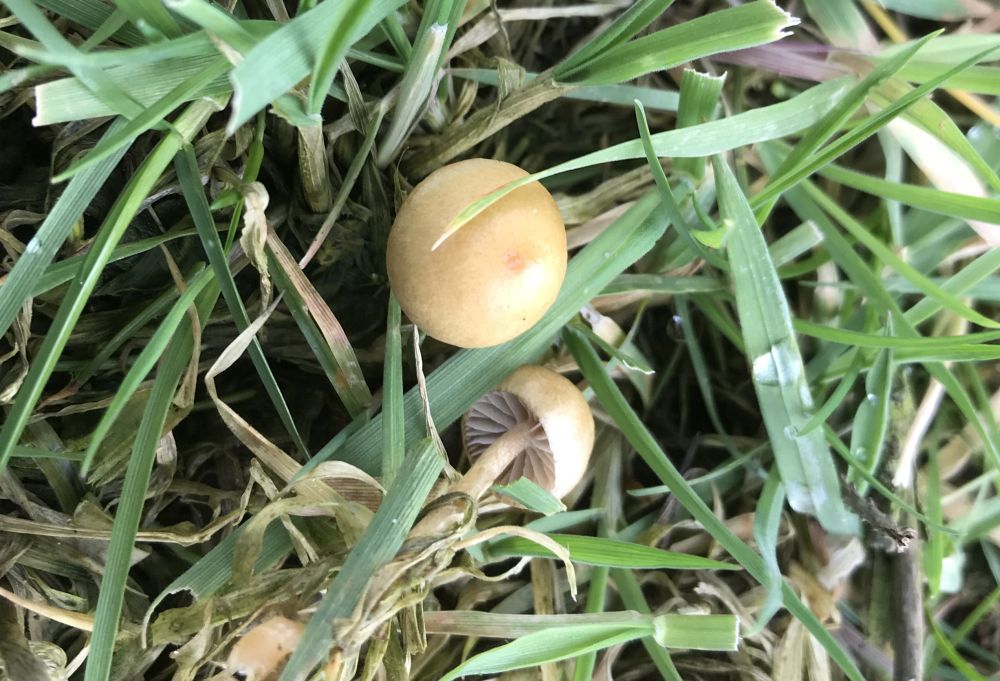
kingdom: Fungi
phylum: Basidiomycota
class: Agaricomycetes
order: Agaricales
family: Strophariaceae
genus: Protostropharia
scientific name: Protostropharia
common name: bredblad
